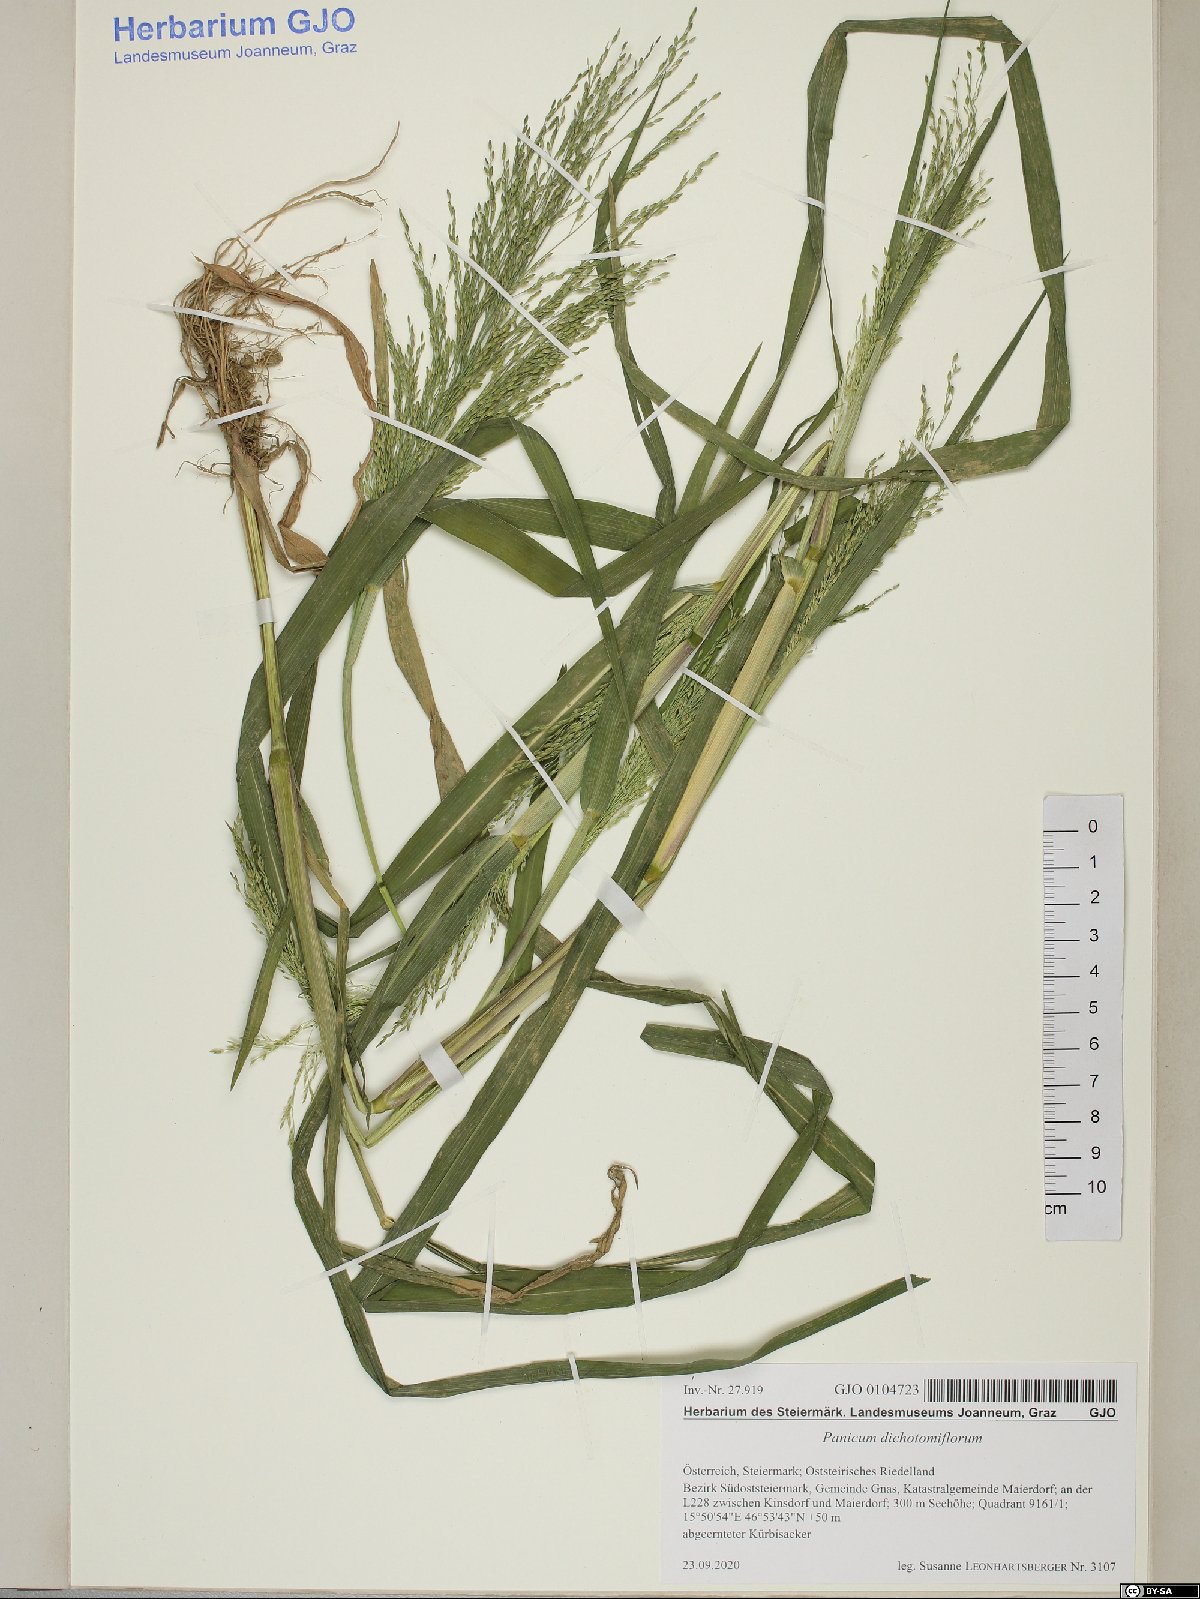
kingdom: Plantae
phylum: Tracheophyta
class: Liliopsida
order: Poales
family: Poaceae
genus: Panicum
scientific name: Panicum dichotomiflorum
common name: Autumn millet
